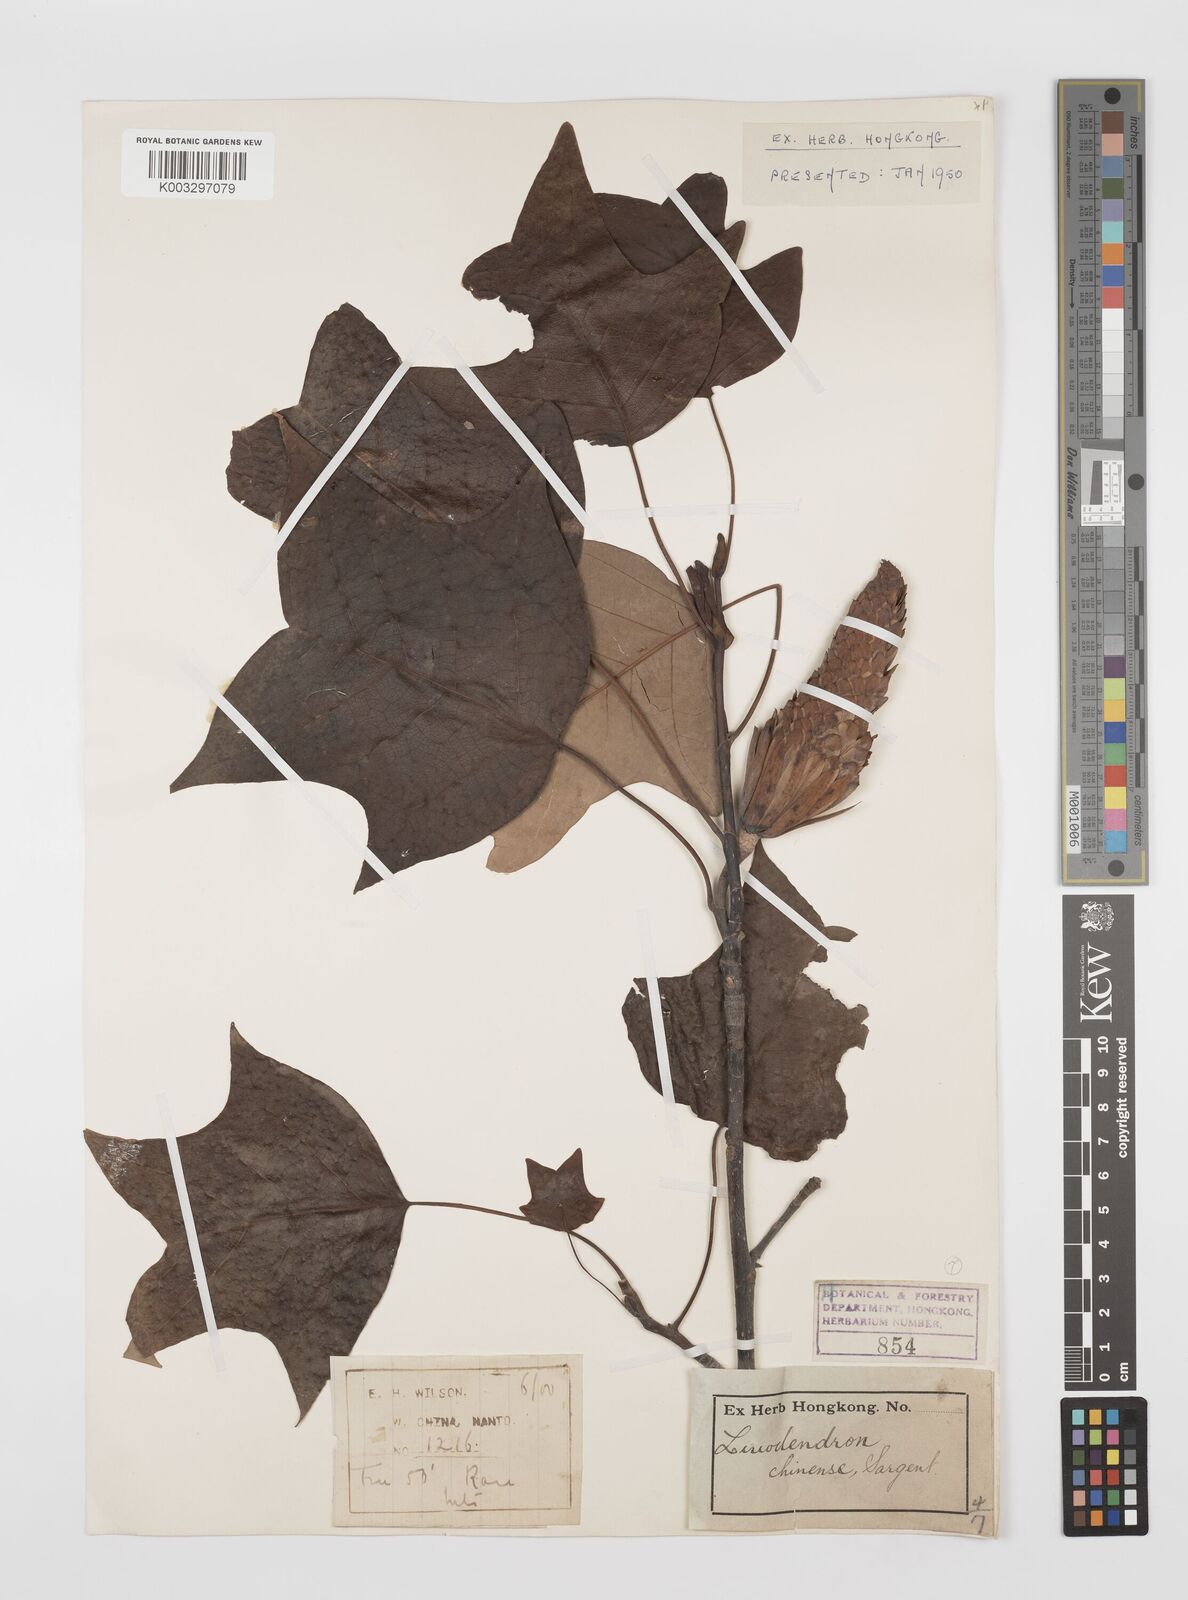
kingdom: Plantae
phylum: Tracheophyta
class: Magnoliopsida
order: Magnoliales
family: Magnoliaceae
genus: Liriodendron
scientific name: Liriodendron chinense
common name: Chinese tuliptree
